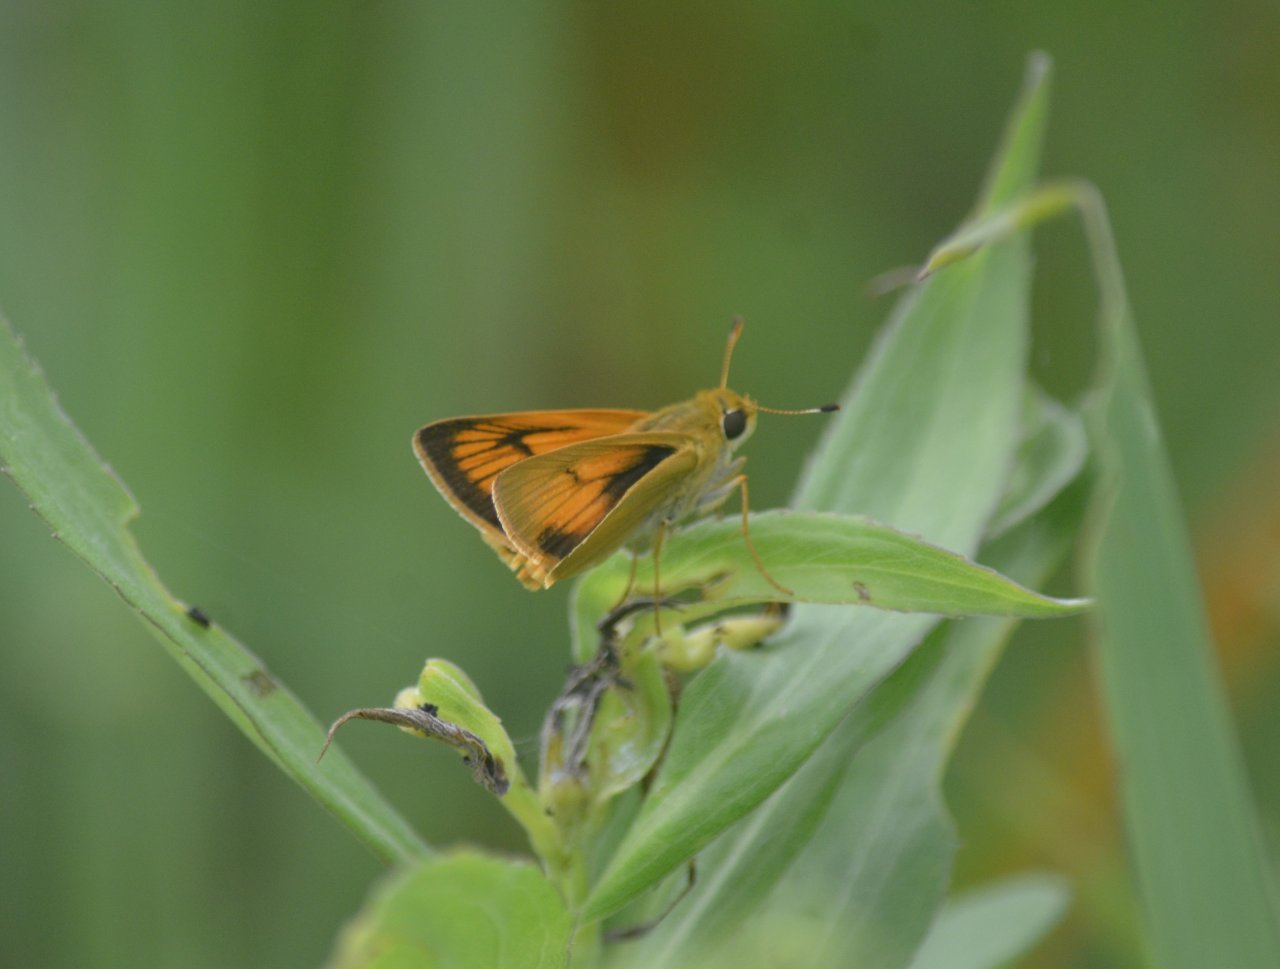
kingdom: Animalia
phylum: Arthropoda
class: Insecta
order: Lepidoptera
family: Hesperiidae
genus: Atrytone
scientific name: Atrytone delaware
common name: Delaware Skipper
